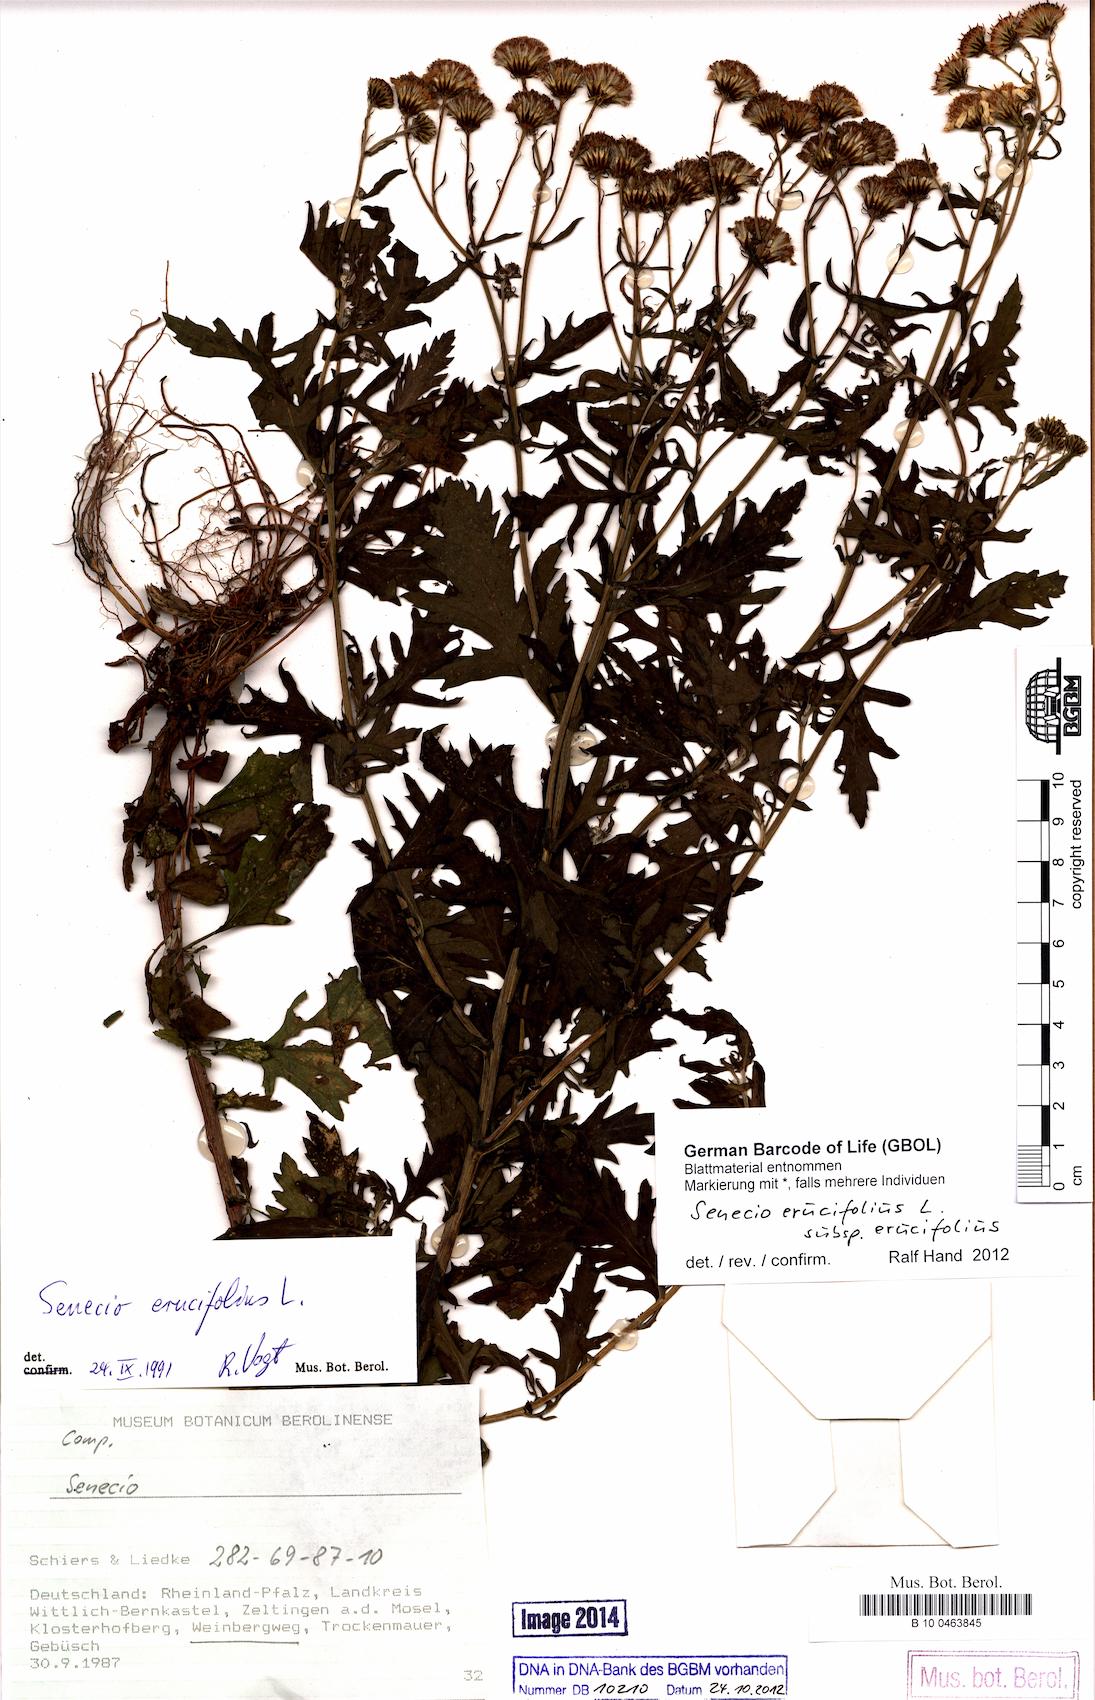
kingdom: Plantae
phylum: Tracheophyta
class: Magnoliopsida
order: Asterales
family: Asteraceae
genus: Jacobaea
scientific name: Jacobaea erucifolia
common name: Hoary ragwort
